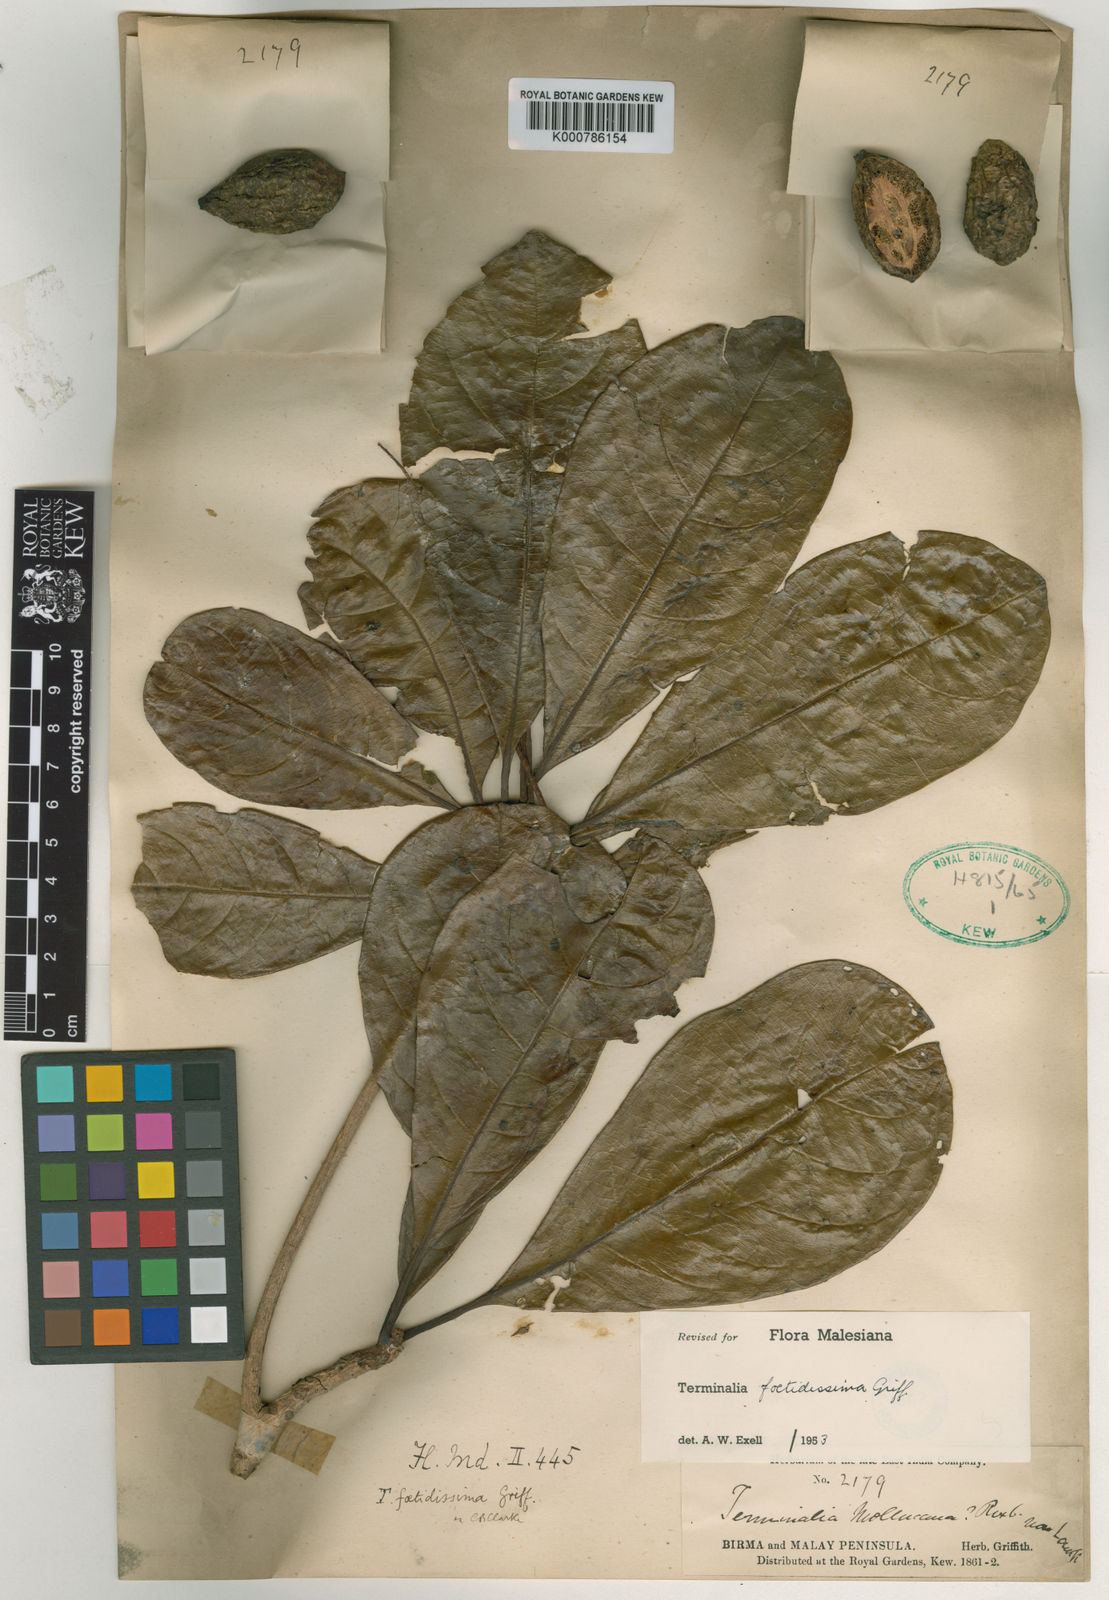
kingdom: Plantae
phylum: Tracheophyta
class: Magnoliopsida
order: Myrtales
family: Combretaceae
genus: Terminalia
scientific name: Terminalia foetidissima
